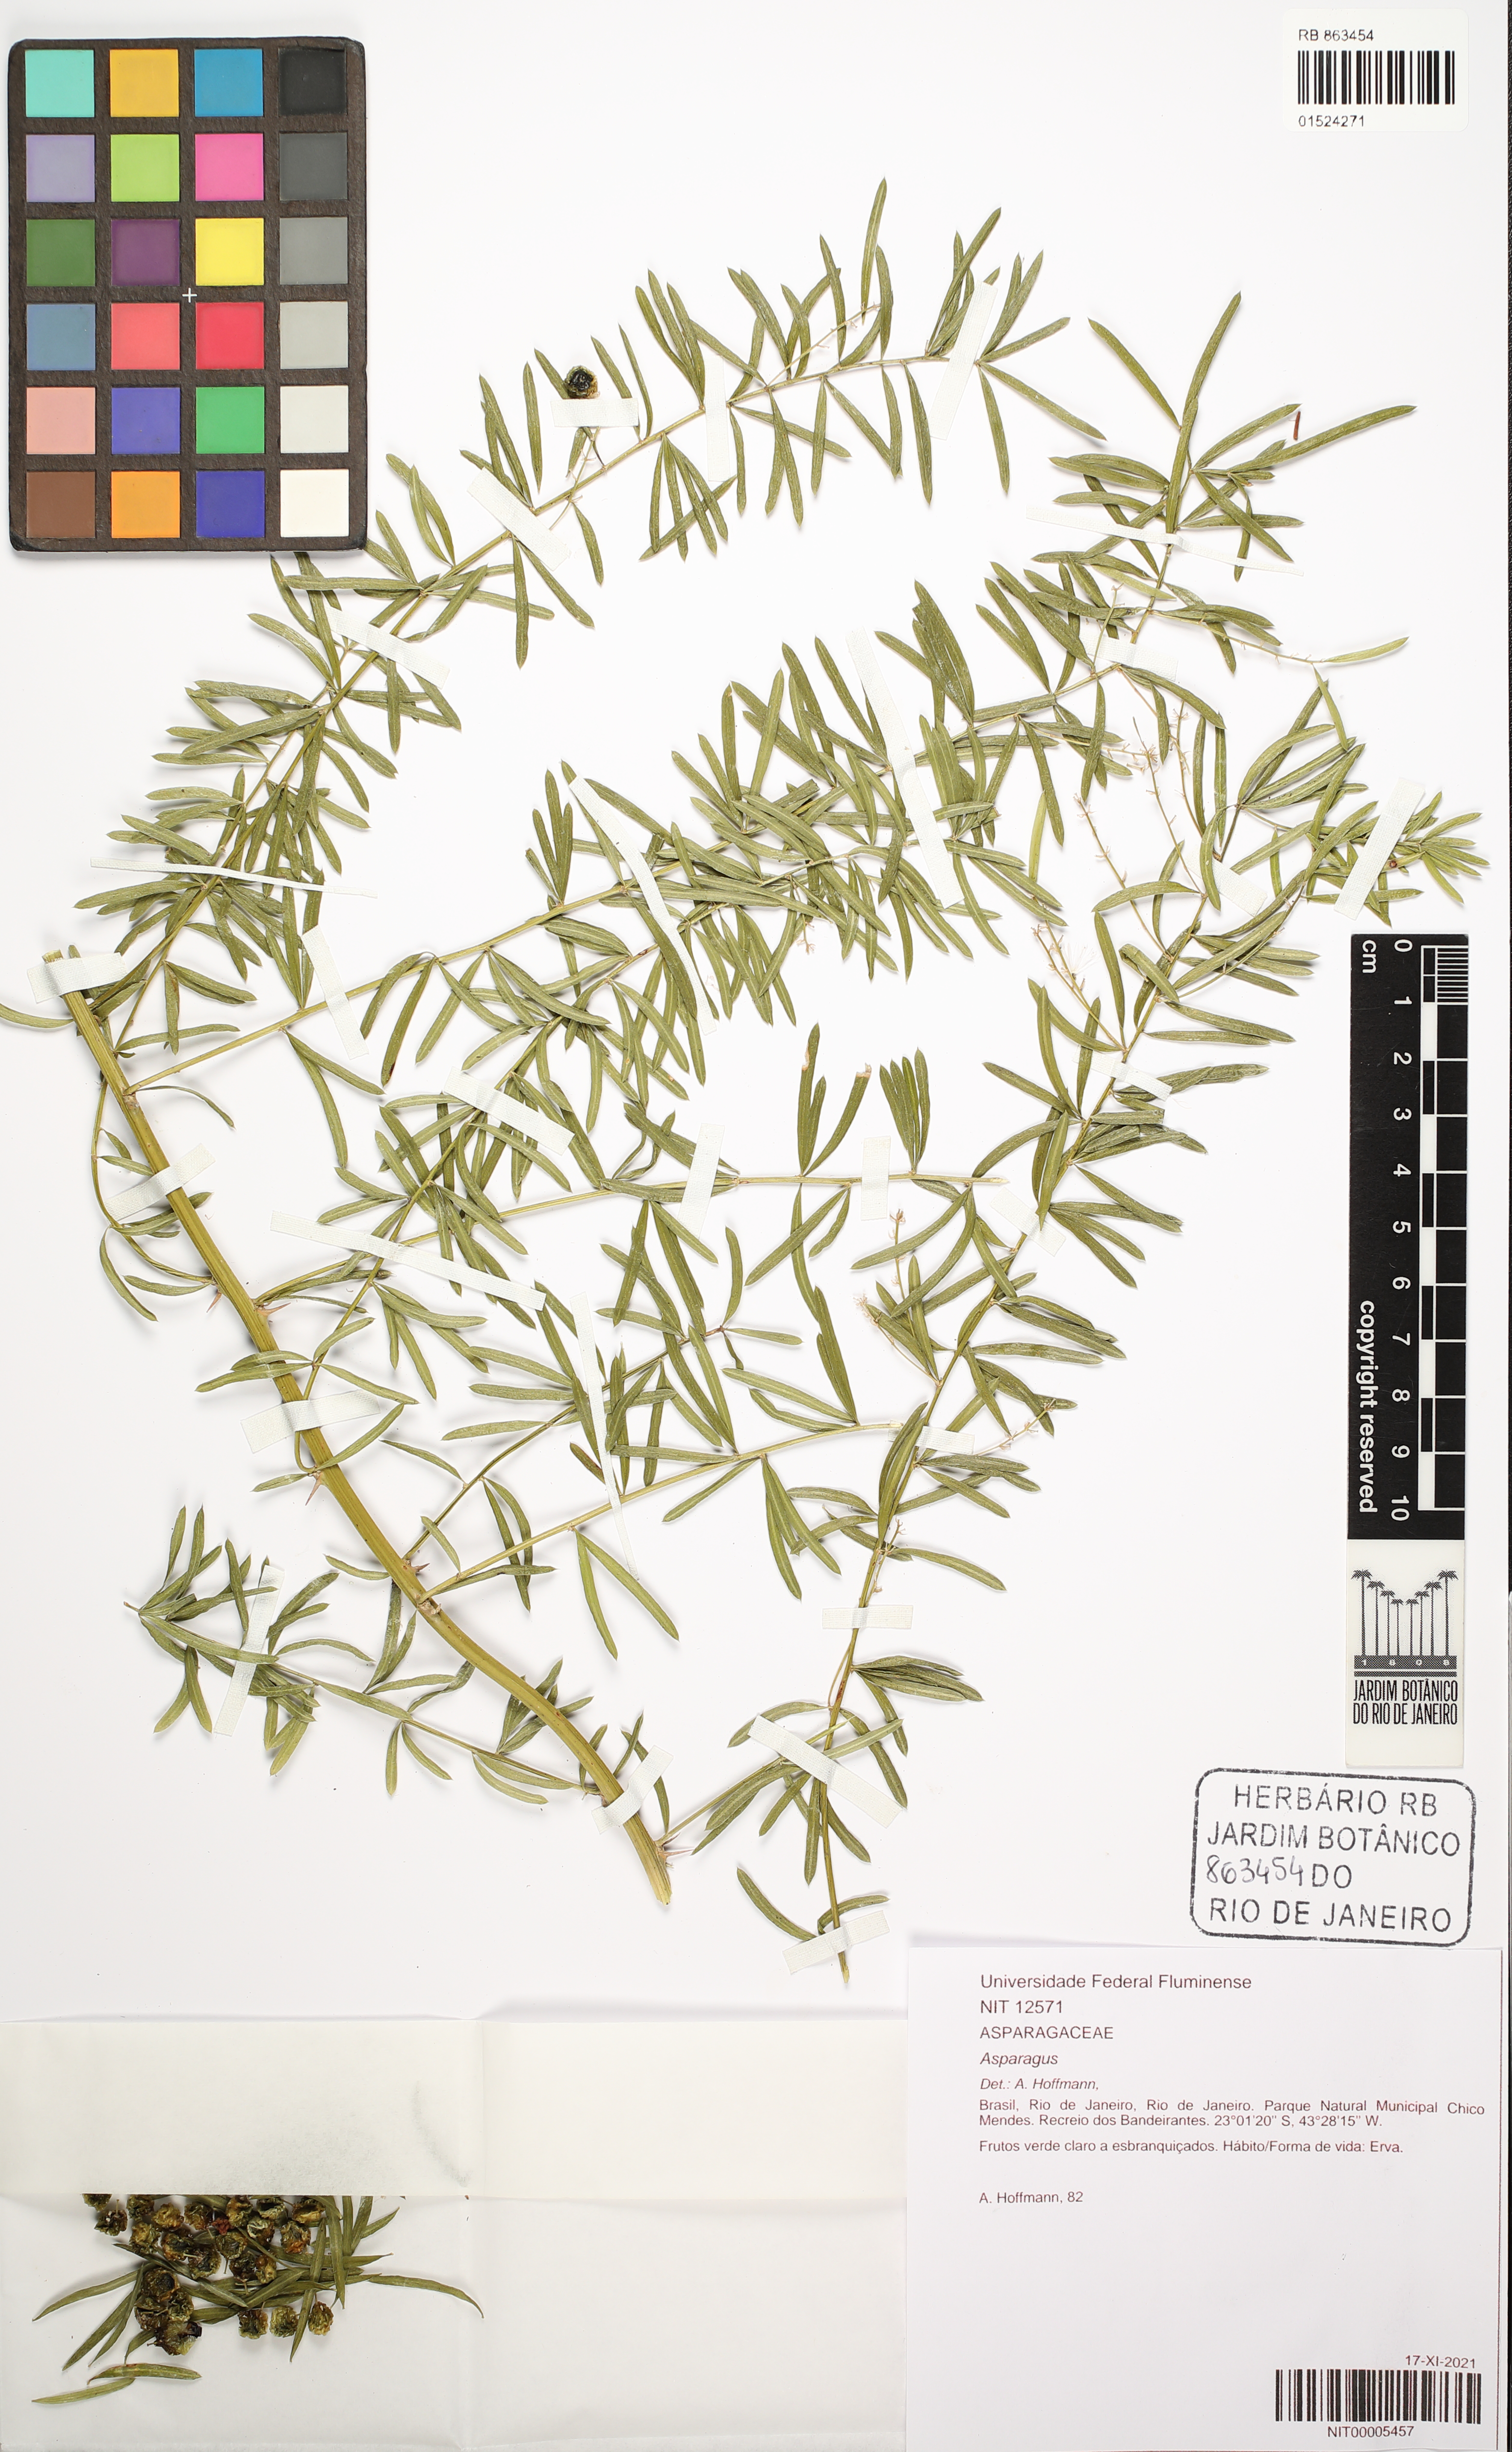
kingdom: Plantae
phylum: Tracheophyta
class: Liliopsida
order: Asparagales
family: Asparagaceae
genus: Asparagus
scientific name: Asparagus
